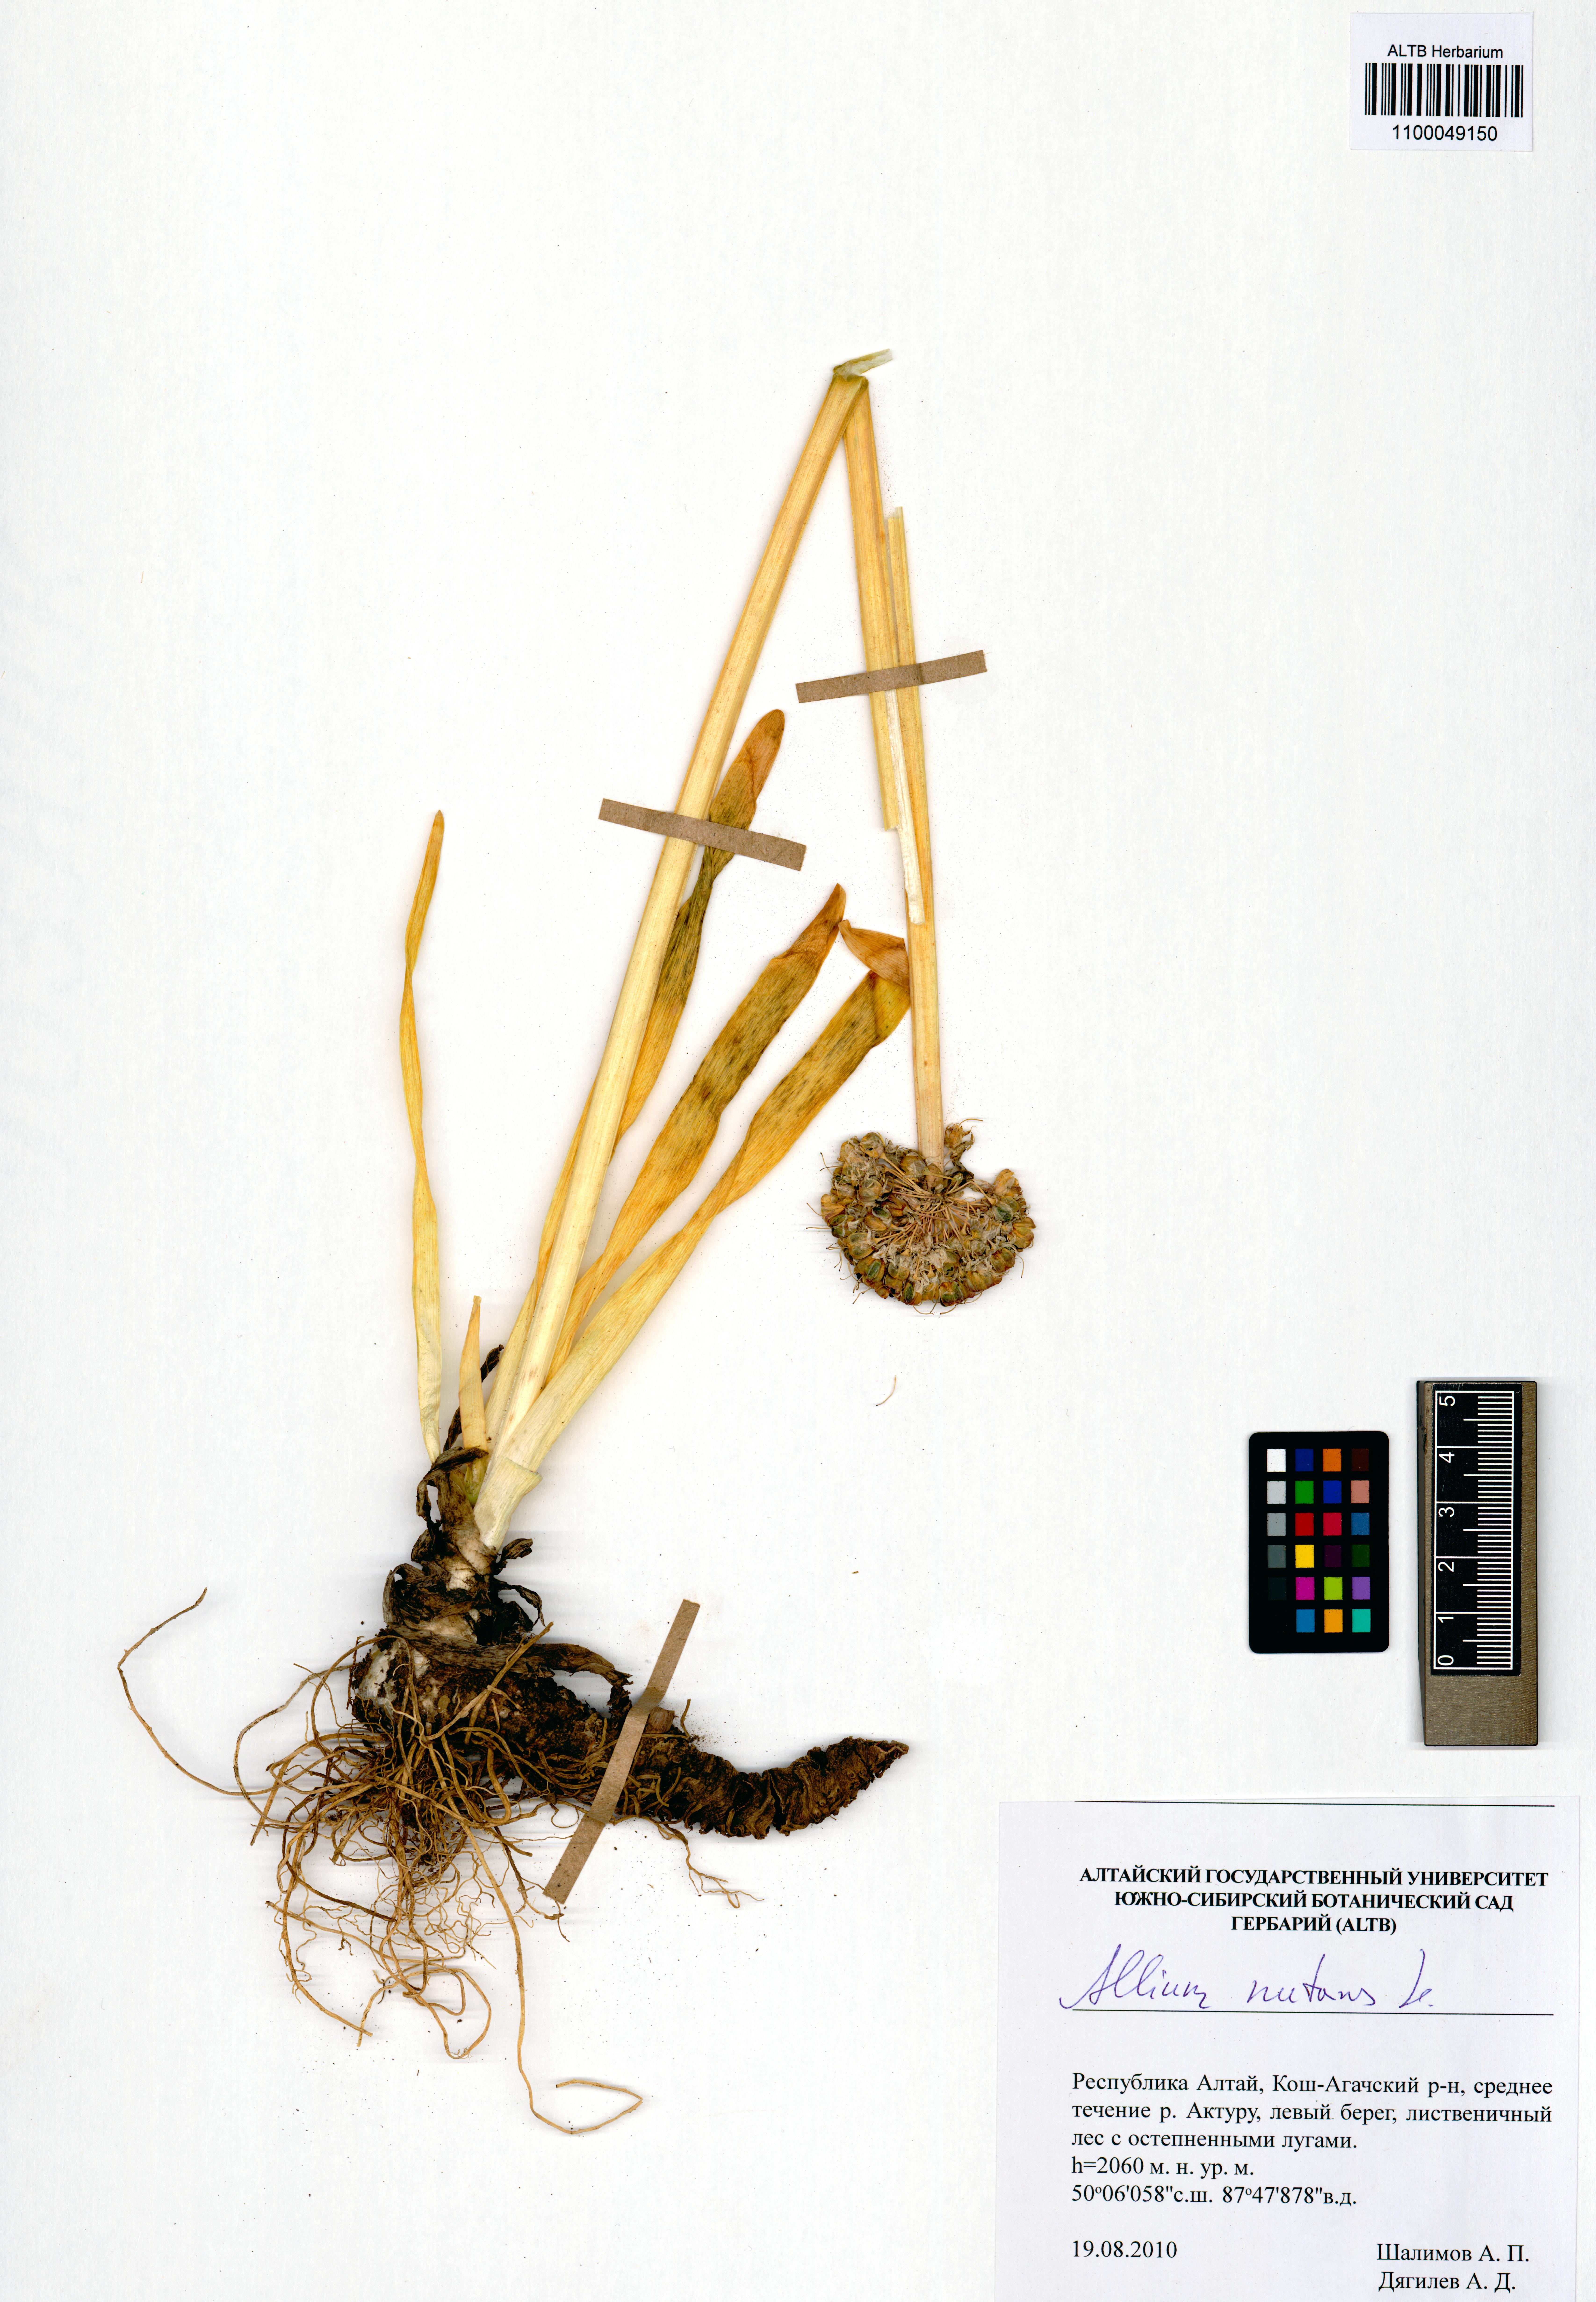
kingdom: Plantae
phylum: Tracheophyta
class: Liliopsida
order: Asparagales
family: Amaryllidaceae
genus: Allium
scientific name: Allium nutans
